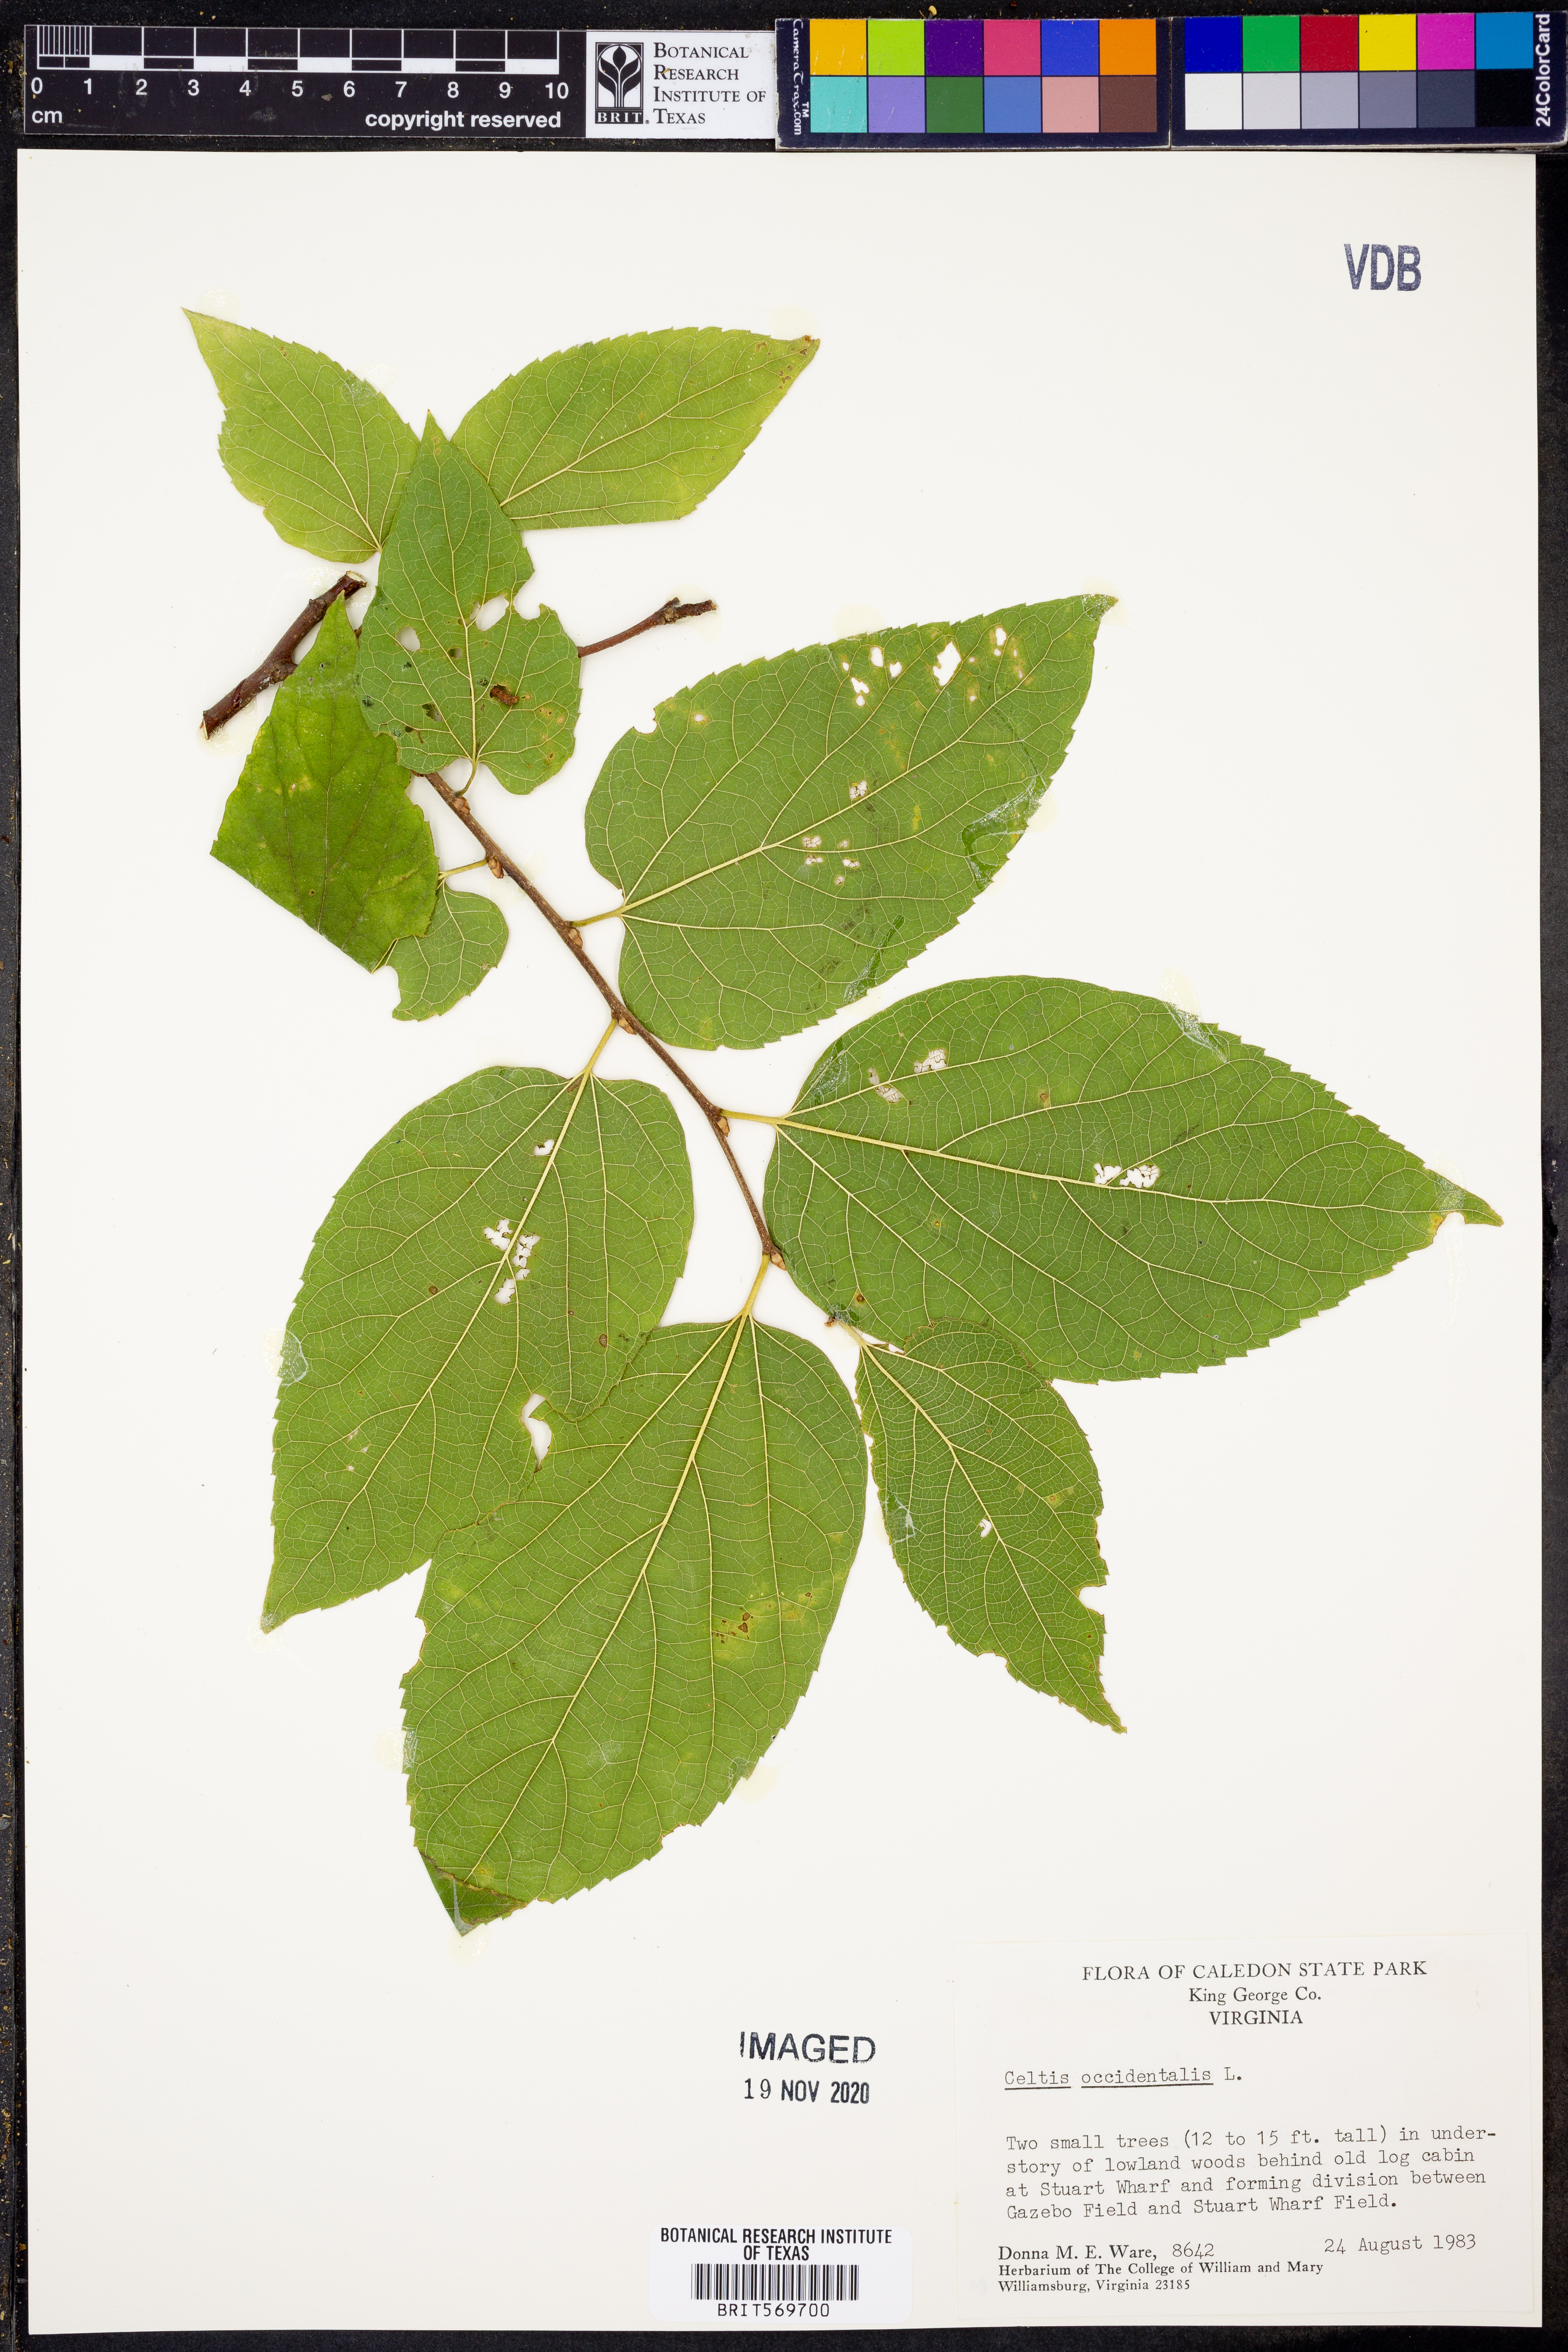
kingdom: Plantae
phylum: Tracheophyta
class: Magnoliopsida
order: Rosales
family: Cannabaceae
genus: Celtis
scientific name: Celtis occidentalis
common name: Common hackberry
